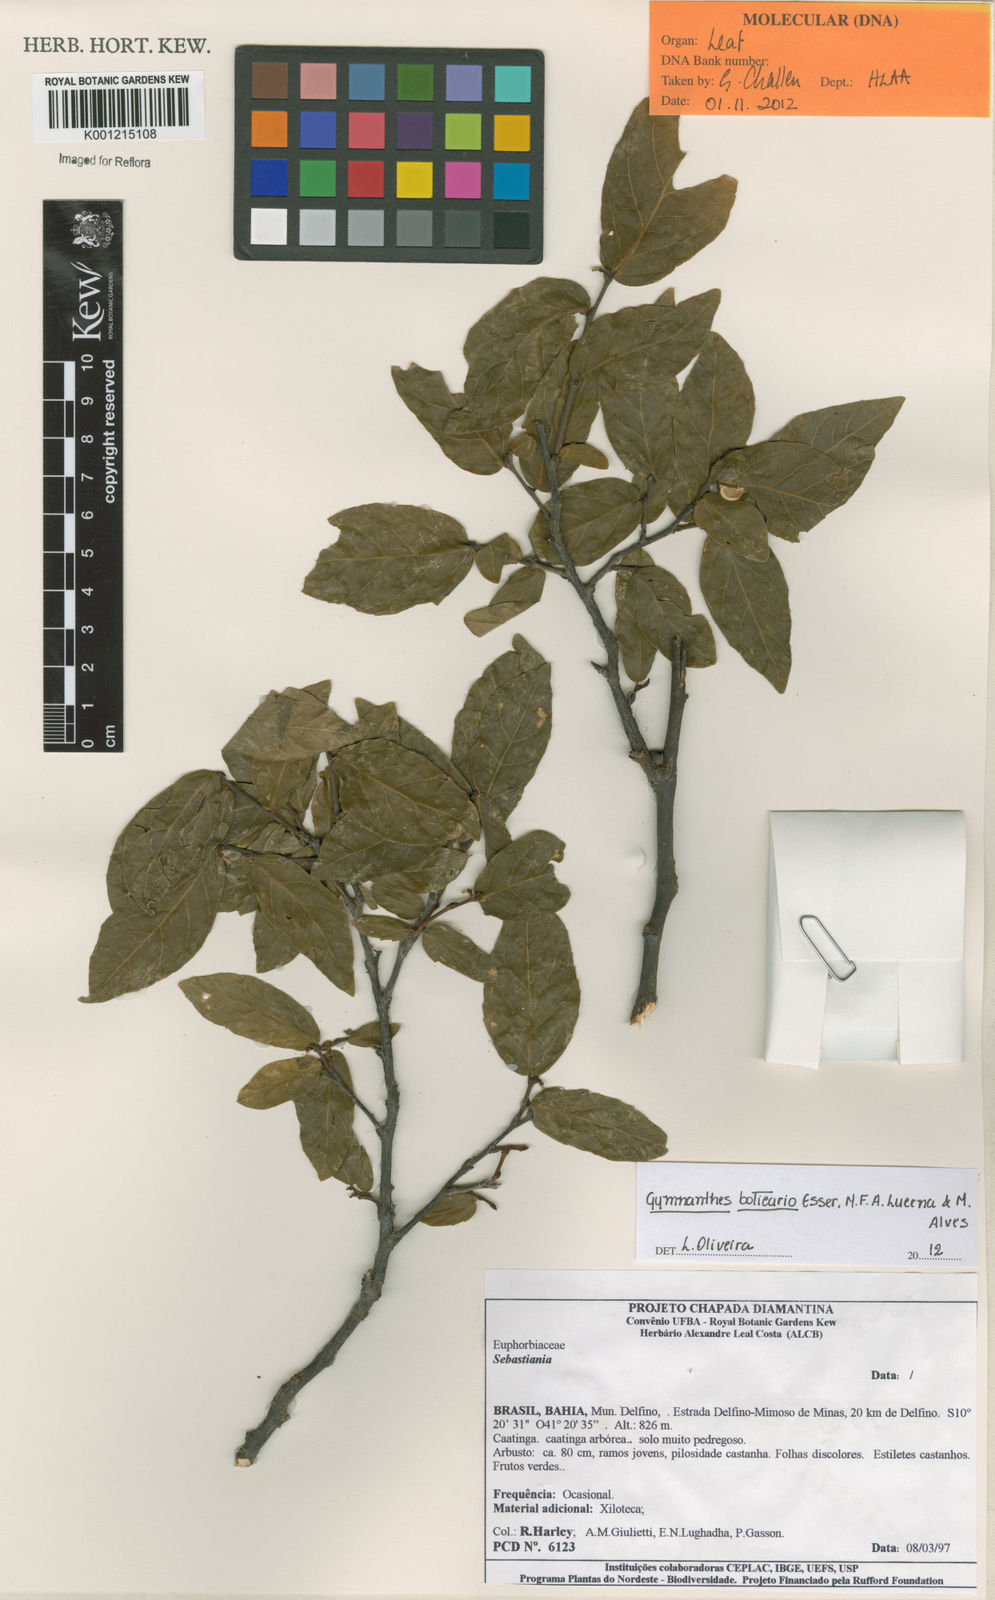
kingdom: Plantae
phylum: Tracheophyta
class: Magnoliopsida
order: Malpighiales
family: Euphorbiaceae
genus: Gymnanthes
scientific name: Gymnanthes boticario
